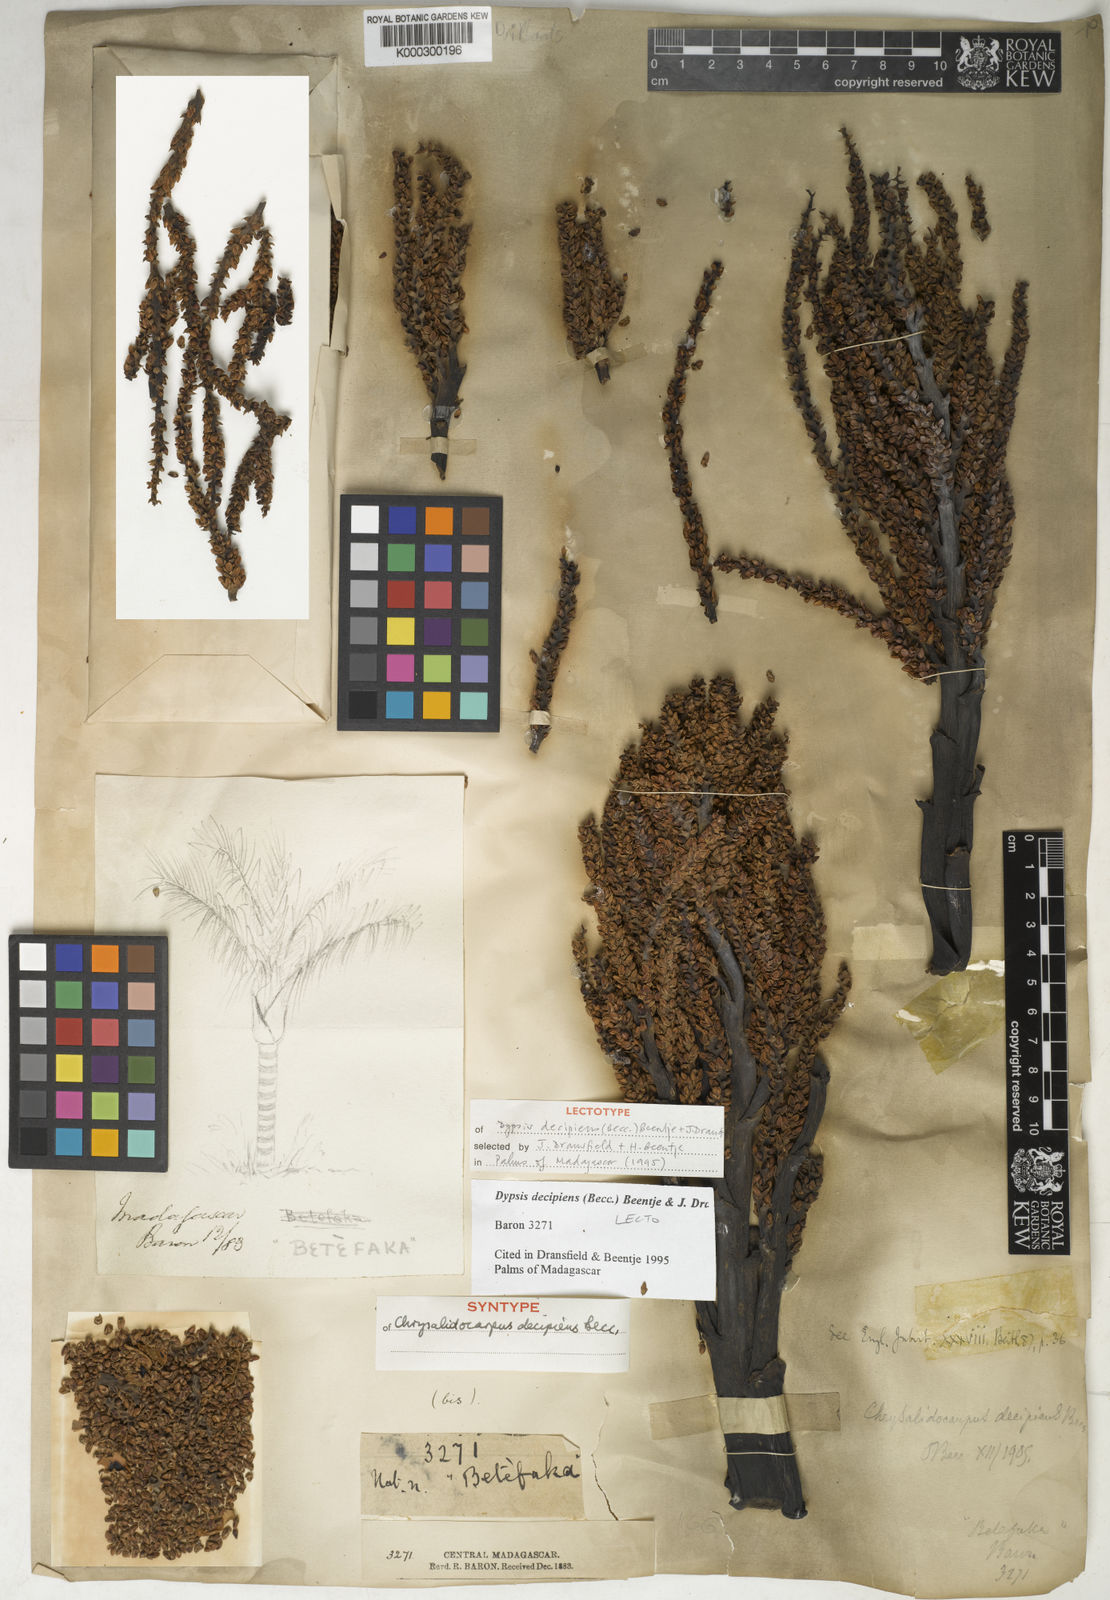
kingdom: Plantae
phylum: Tracheophyta
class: Liliopsida
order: Arecales
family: Arecaceae
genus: Dypsis
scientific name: Dypsis decipiens
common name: Manambe palm
